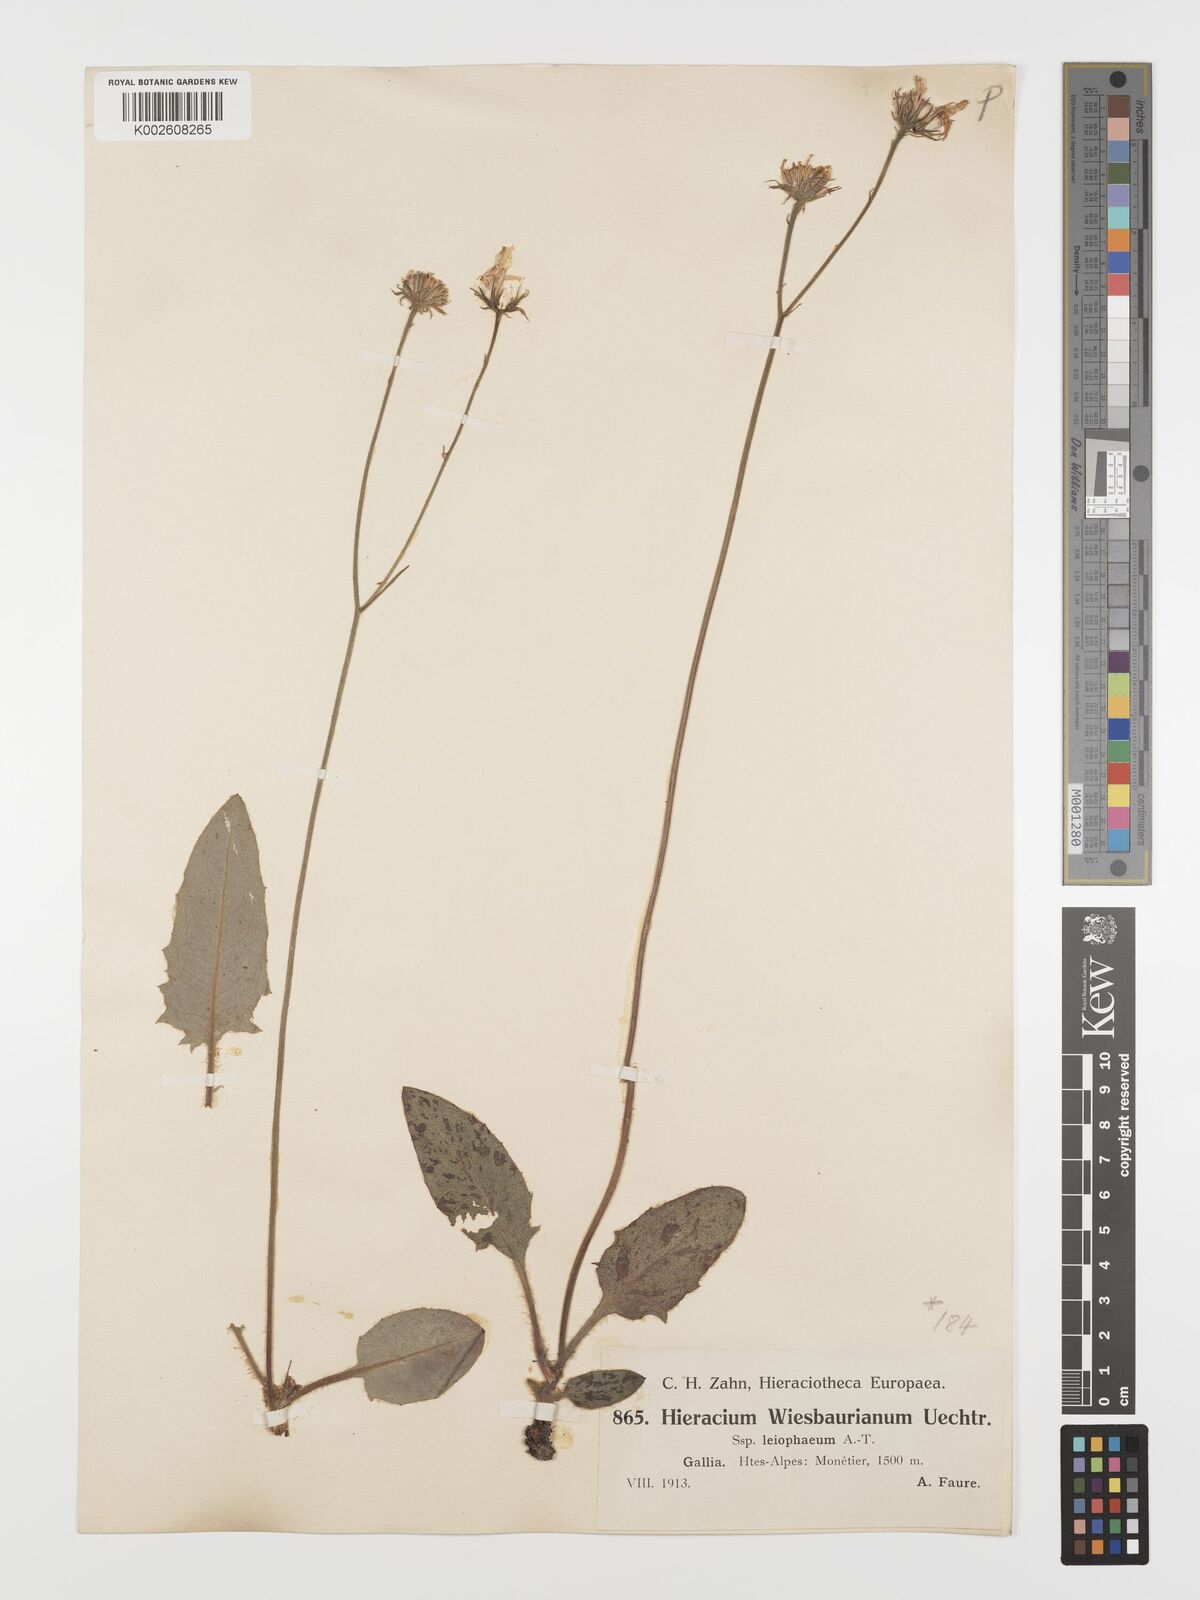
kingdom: Plantae
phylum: Tracheophyta
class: Magnoliopsida
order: Asterales
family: Asteraceae
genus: Hieracium
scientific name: Hieracium leiophaeum
